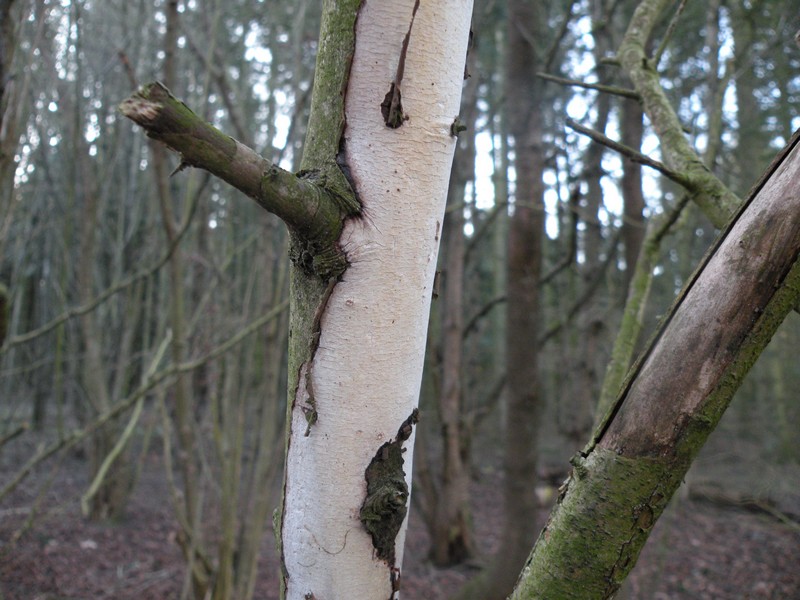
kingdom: Fungi
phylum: Basidiomycota
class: Agaricomycetes
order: Corticiales
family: Vuilleminiaceae
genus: Vuilleminia
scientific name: Vuilleminia cystidiata
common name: tjørne-barksprænger
